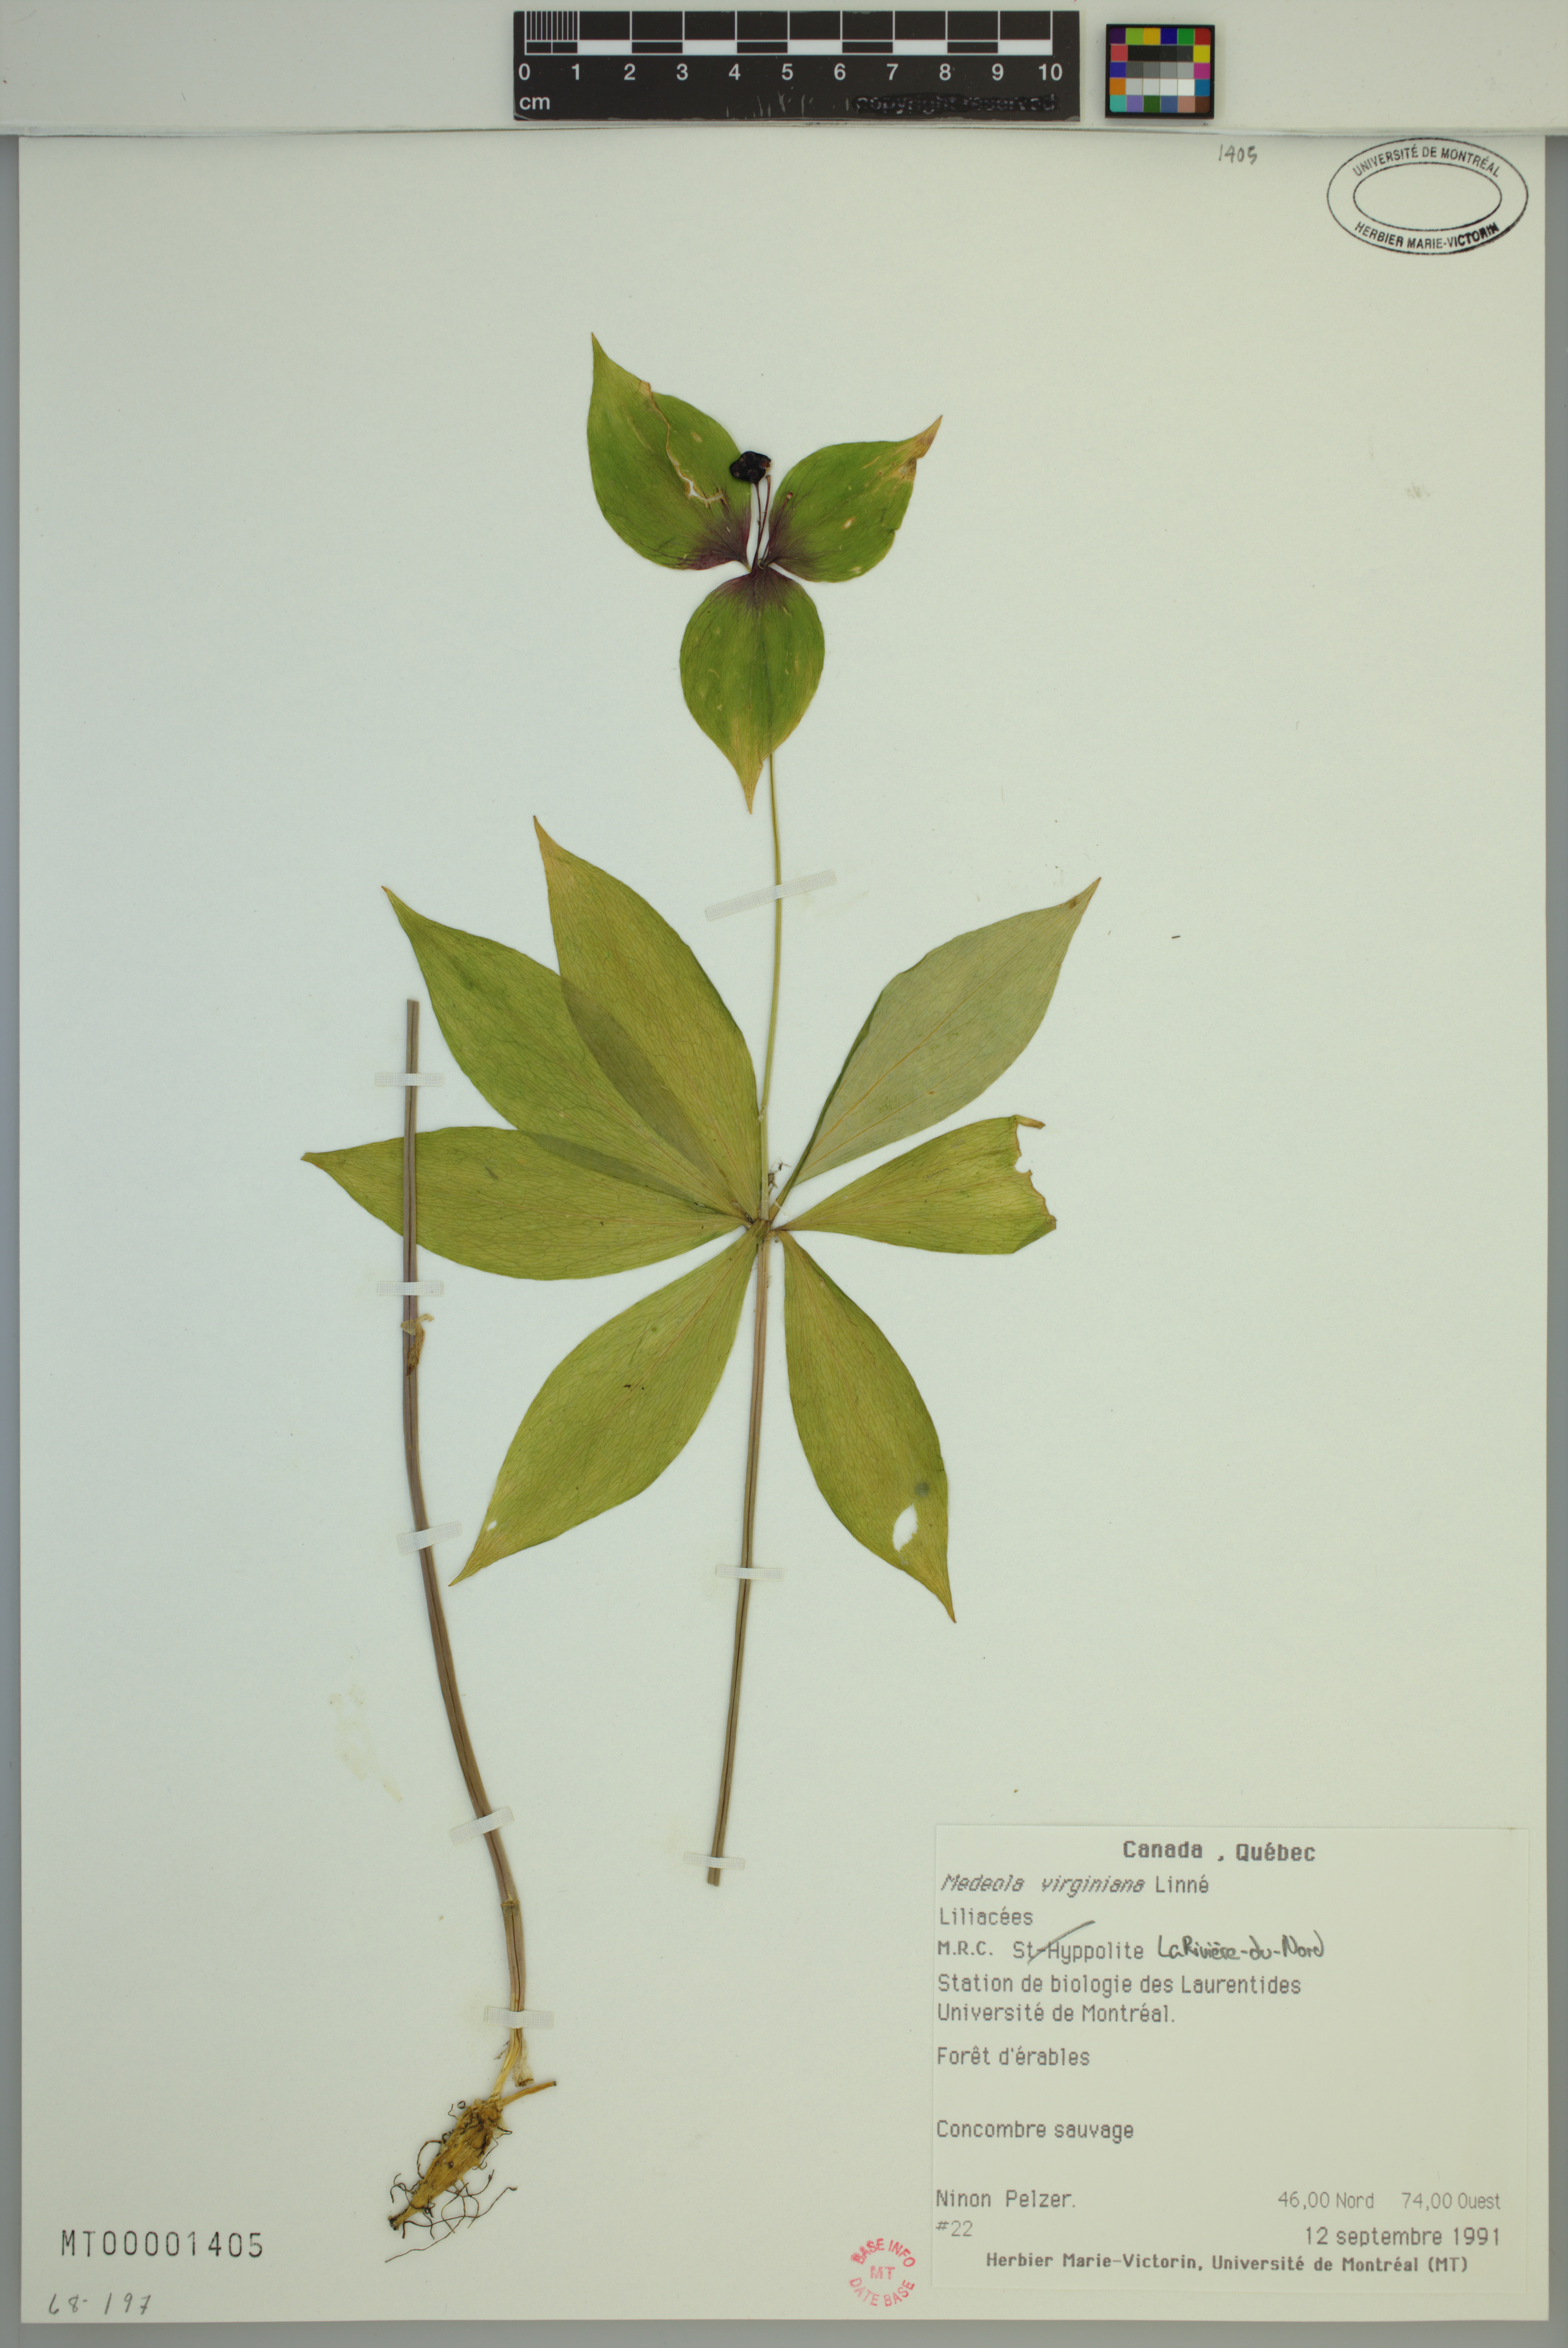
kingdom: Plantae
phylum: Tracheophyta
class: Liliopsida
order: Liliales
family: Liliaceae
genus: Medeola
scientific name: Medeola virginiana
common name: Indian cucumber-root
